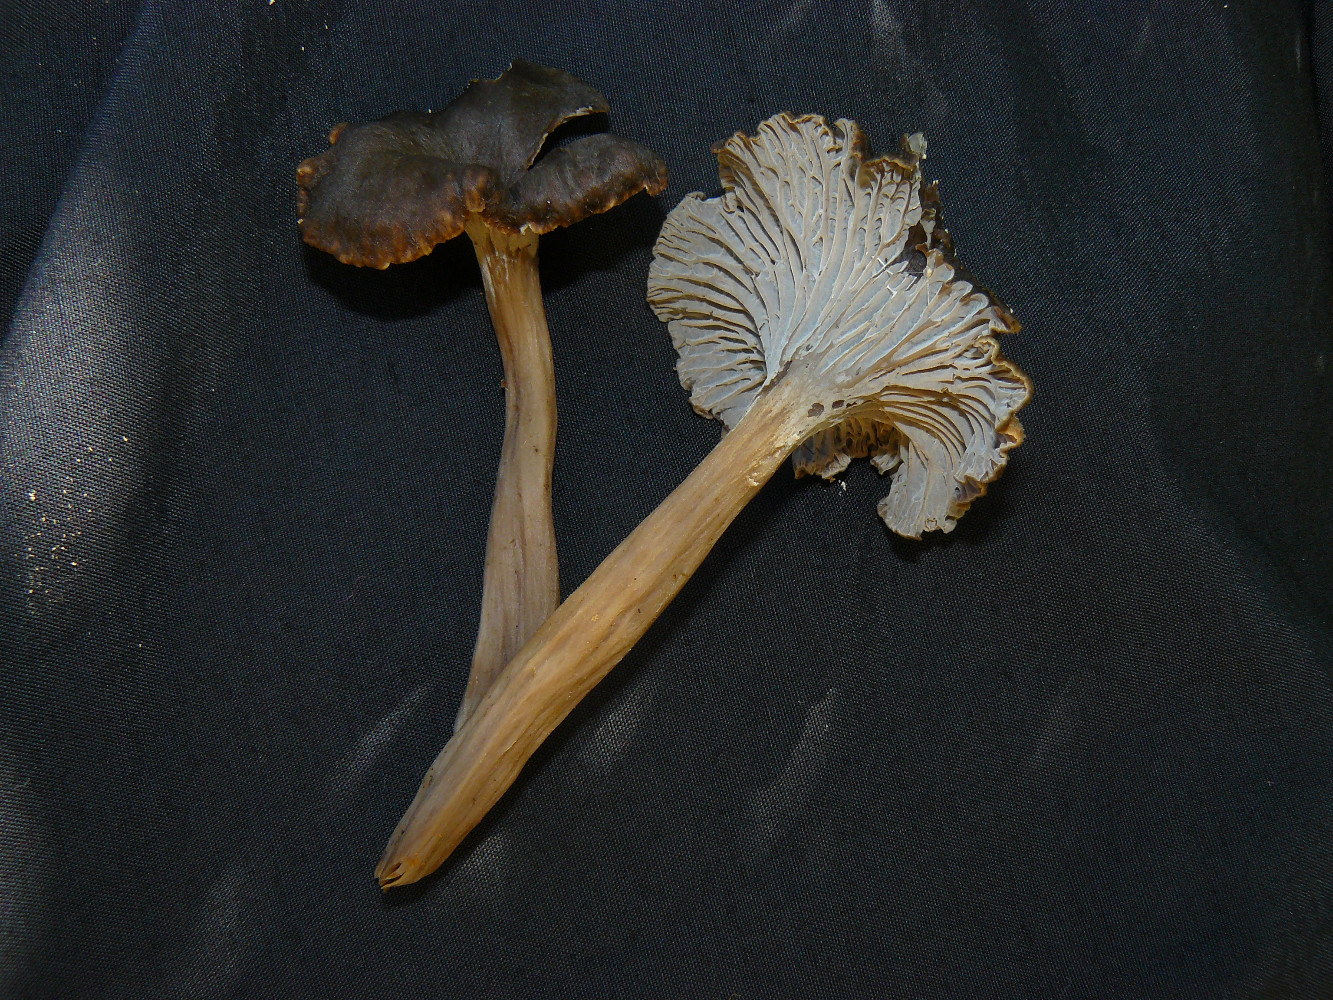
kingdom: Fungi
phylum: Basidiomycota
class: Agaricomycetes
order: Cantharellales
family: Hydnaceae
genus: Cantharellus
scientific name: Cantharellus cinereus
